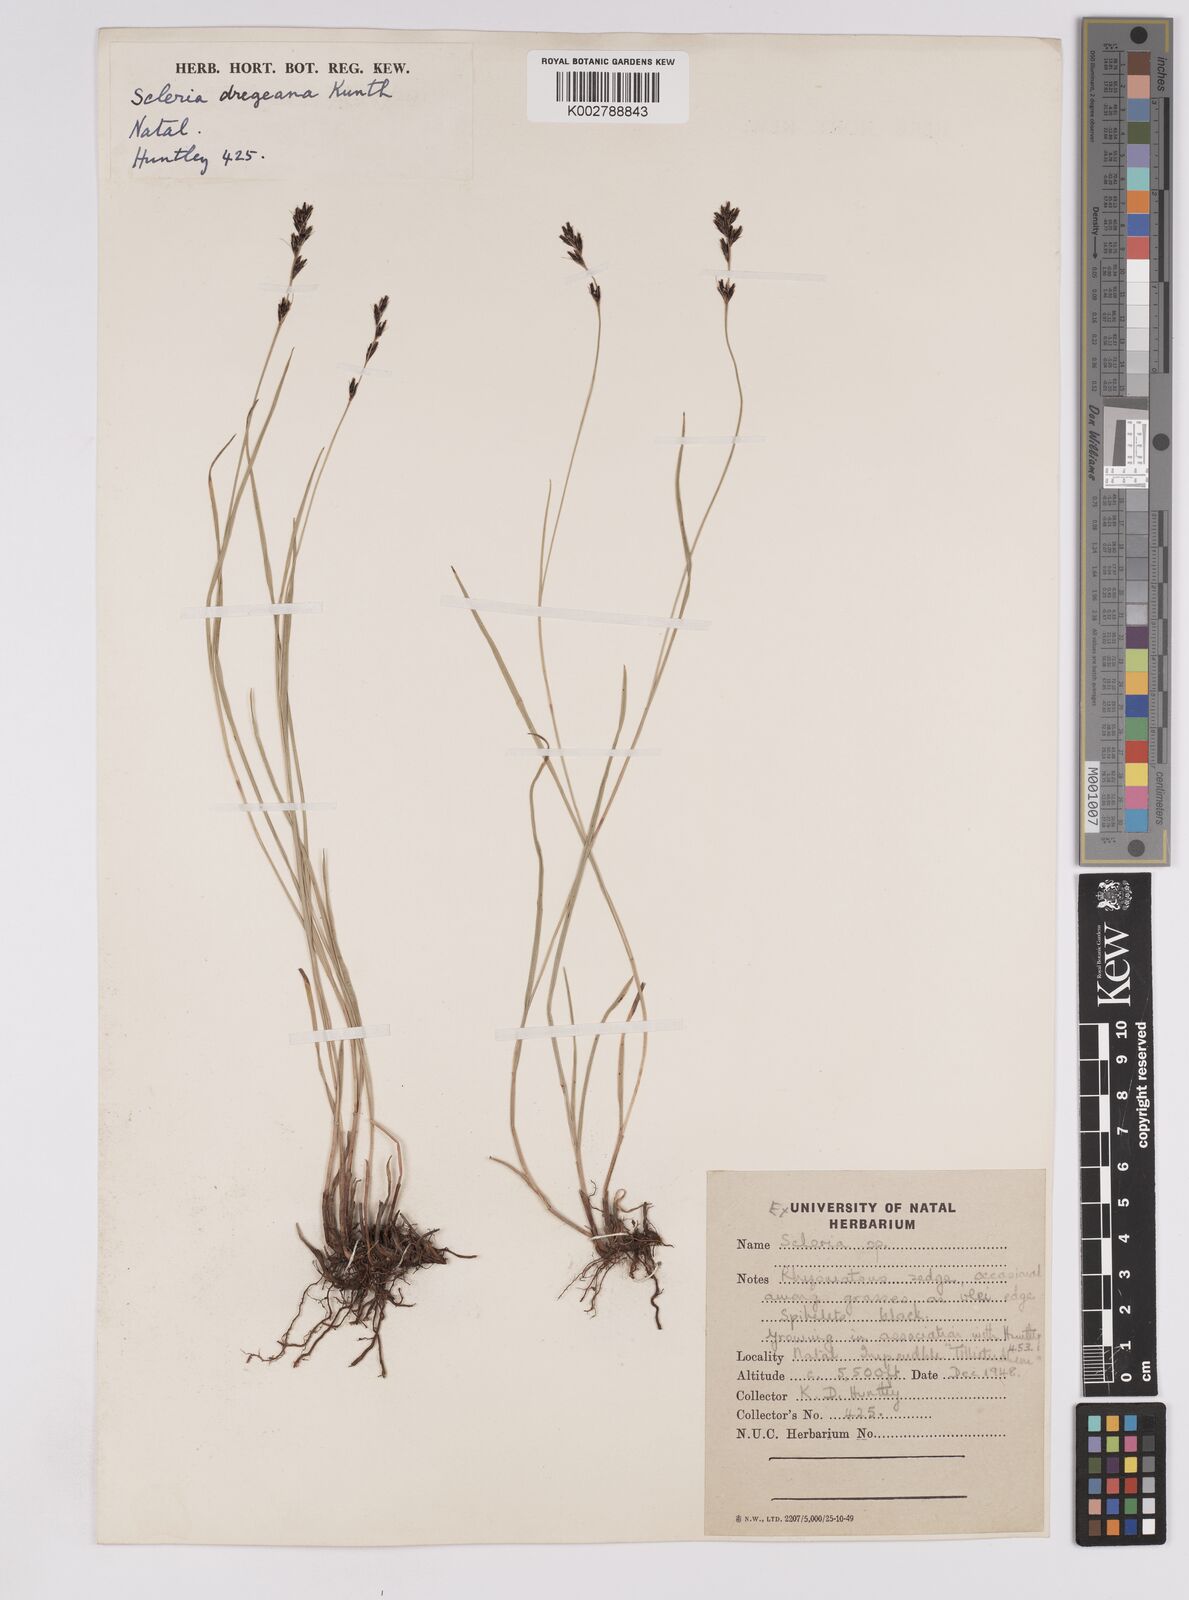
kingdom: Plantae
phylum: Tracheophyta
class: Liliopsida
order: Poales
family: Cyperaceae
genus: Scleria
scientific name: Scleria dregeana
